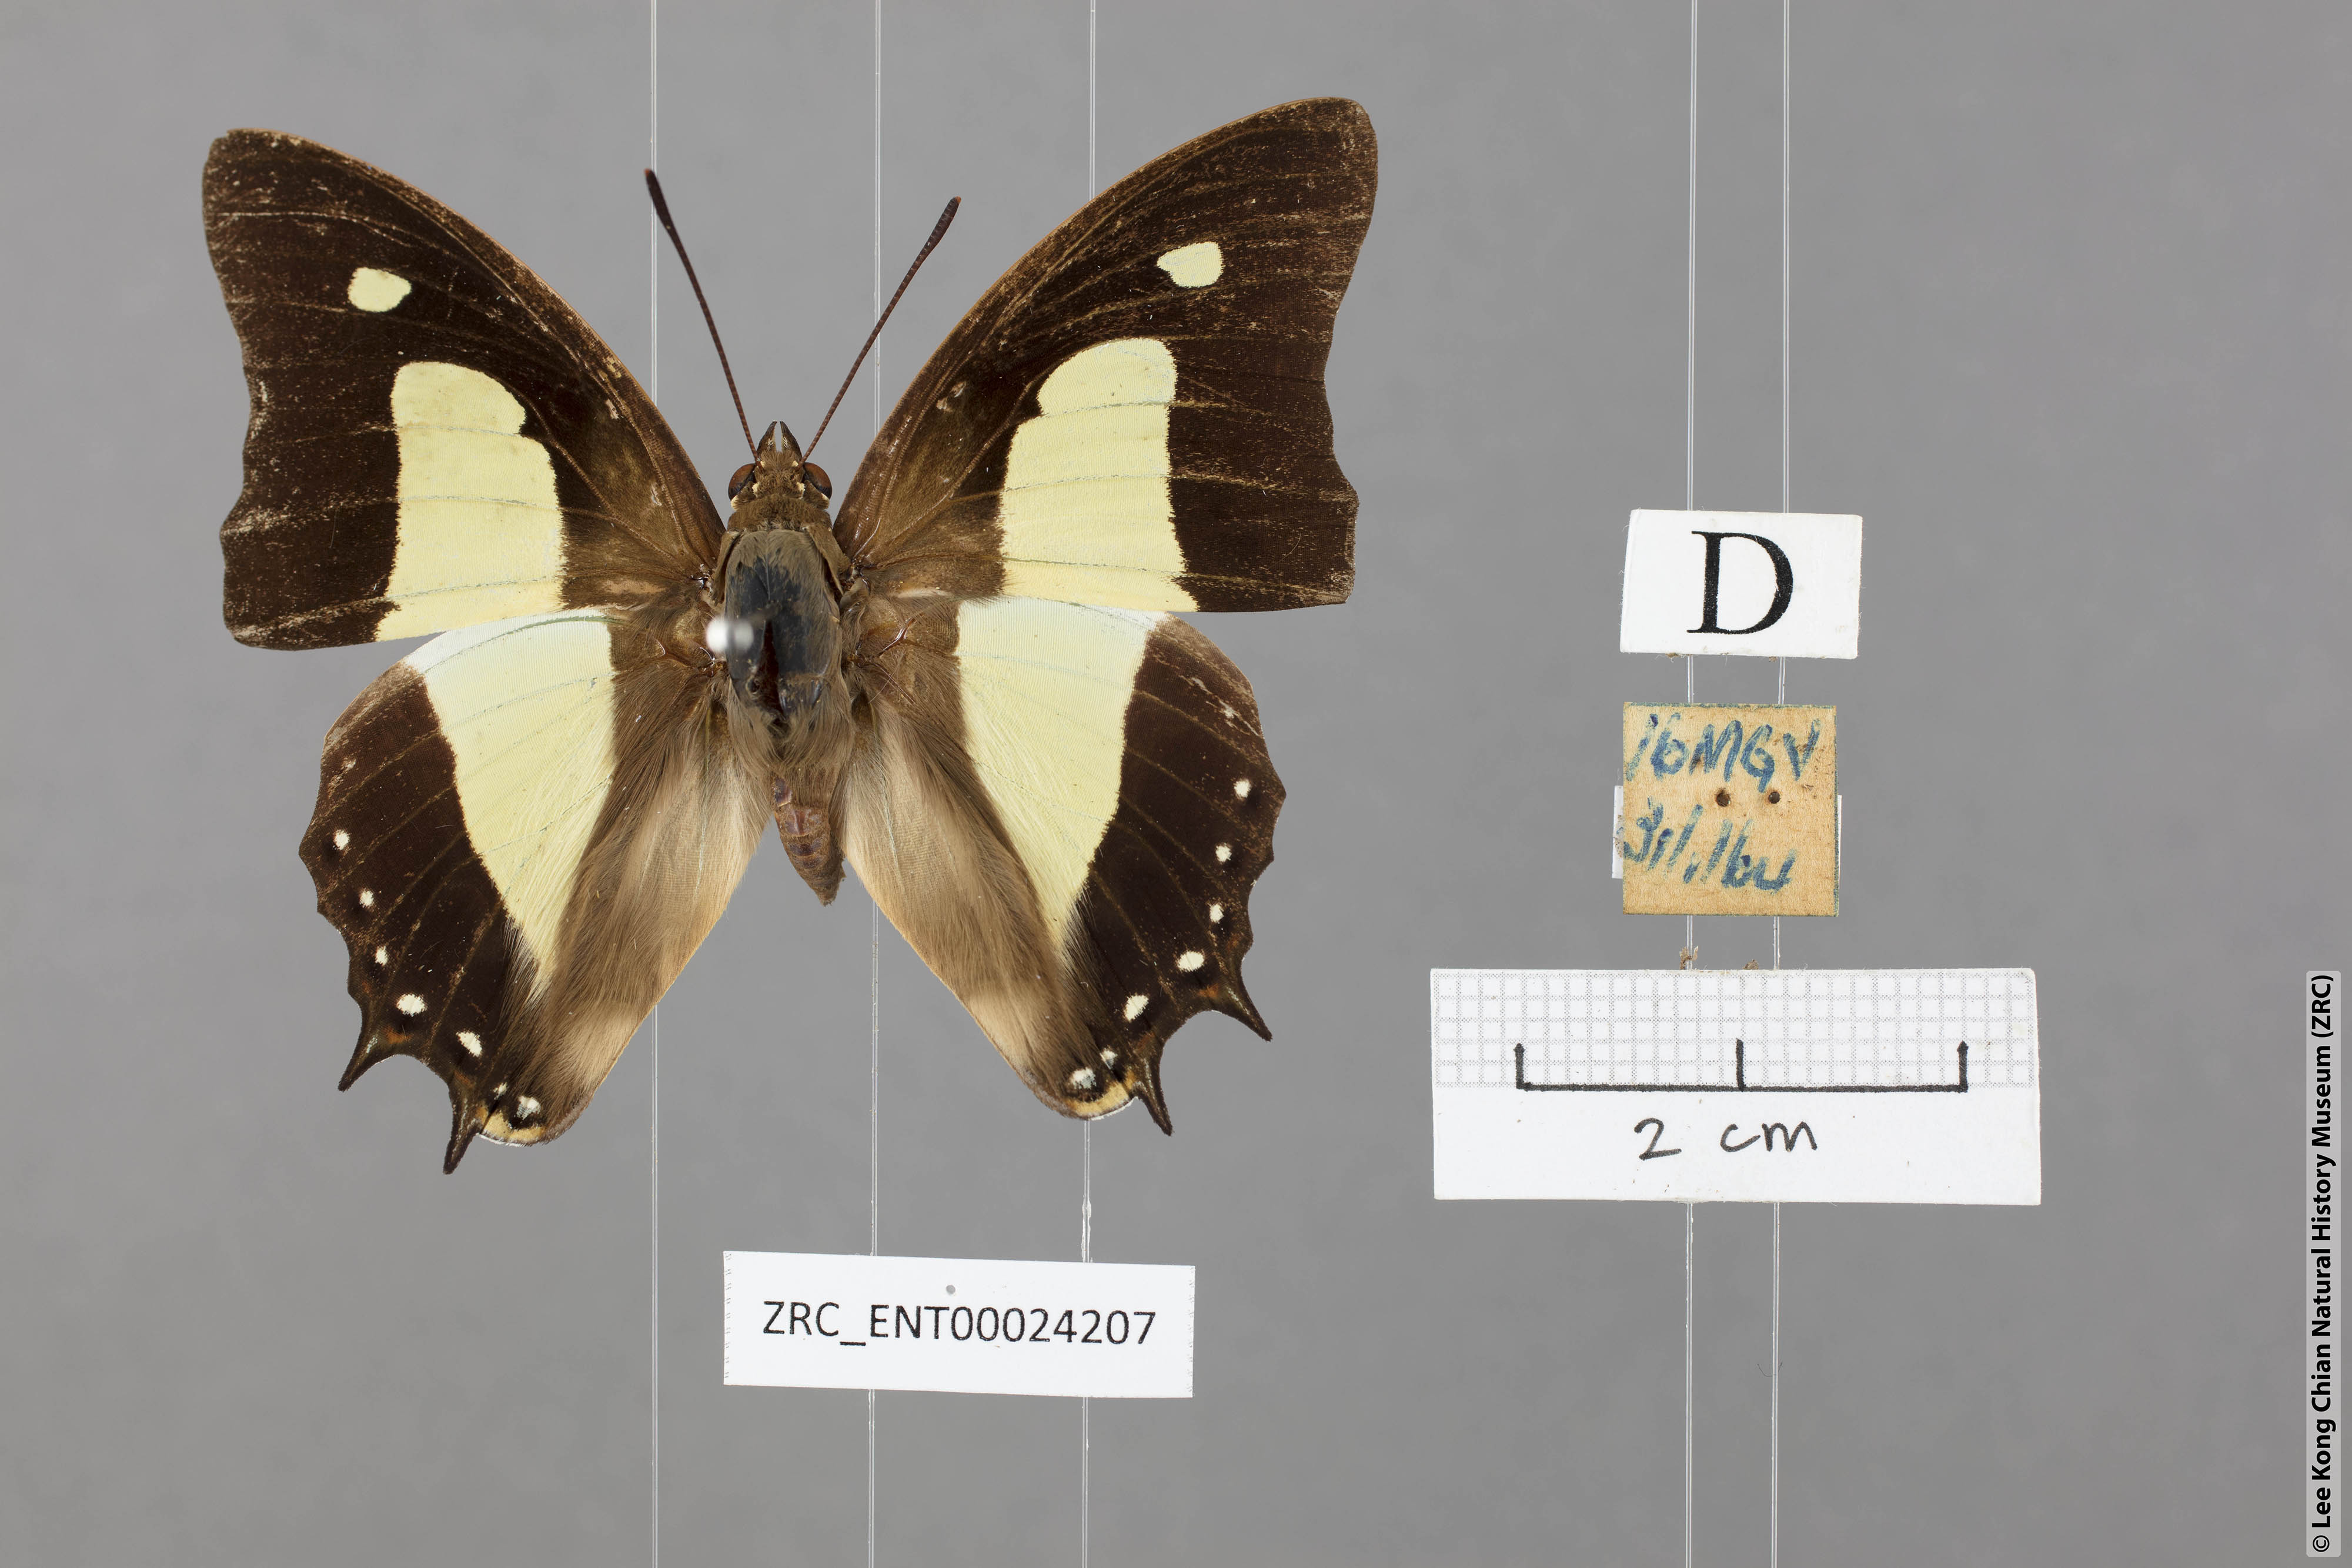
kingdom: Animalia
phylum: Arthropoda
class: Insecta
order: Lepidoptera
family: Nymphalidae
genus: Polyura
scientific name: Polyura athamas
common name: Common nawab
